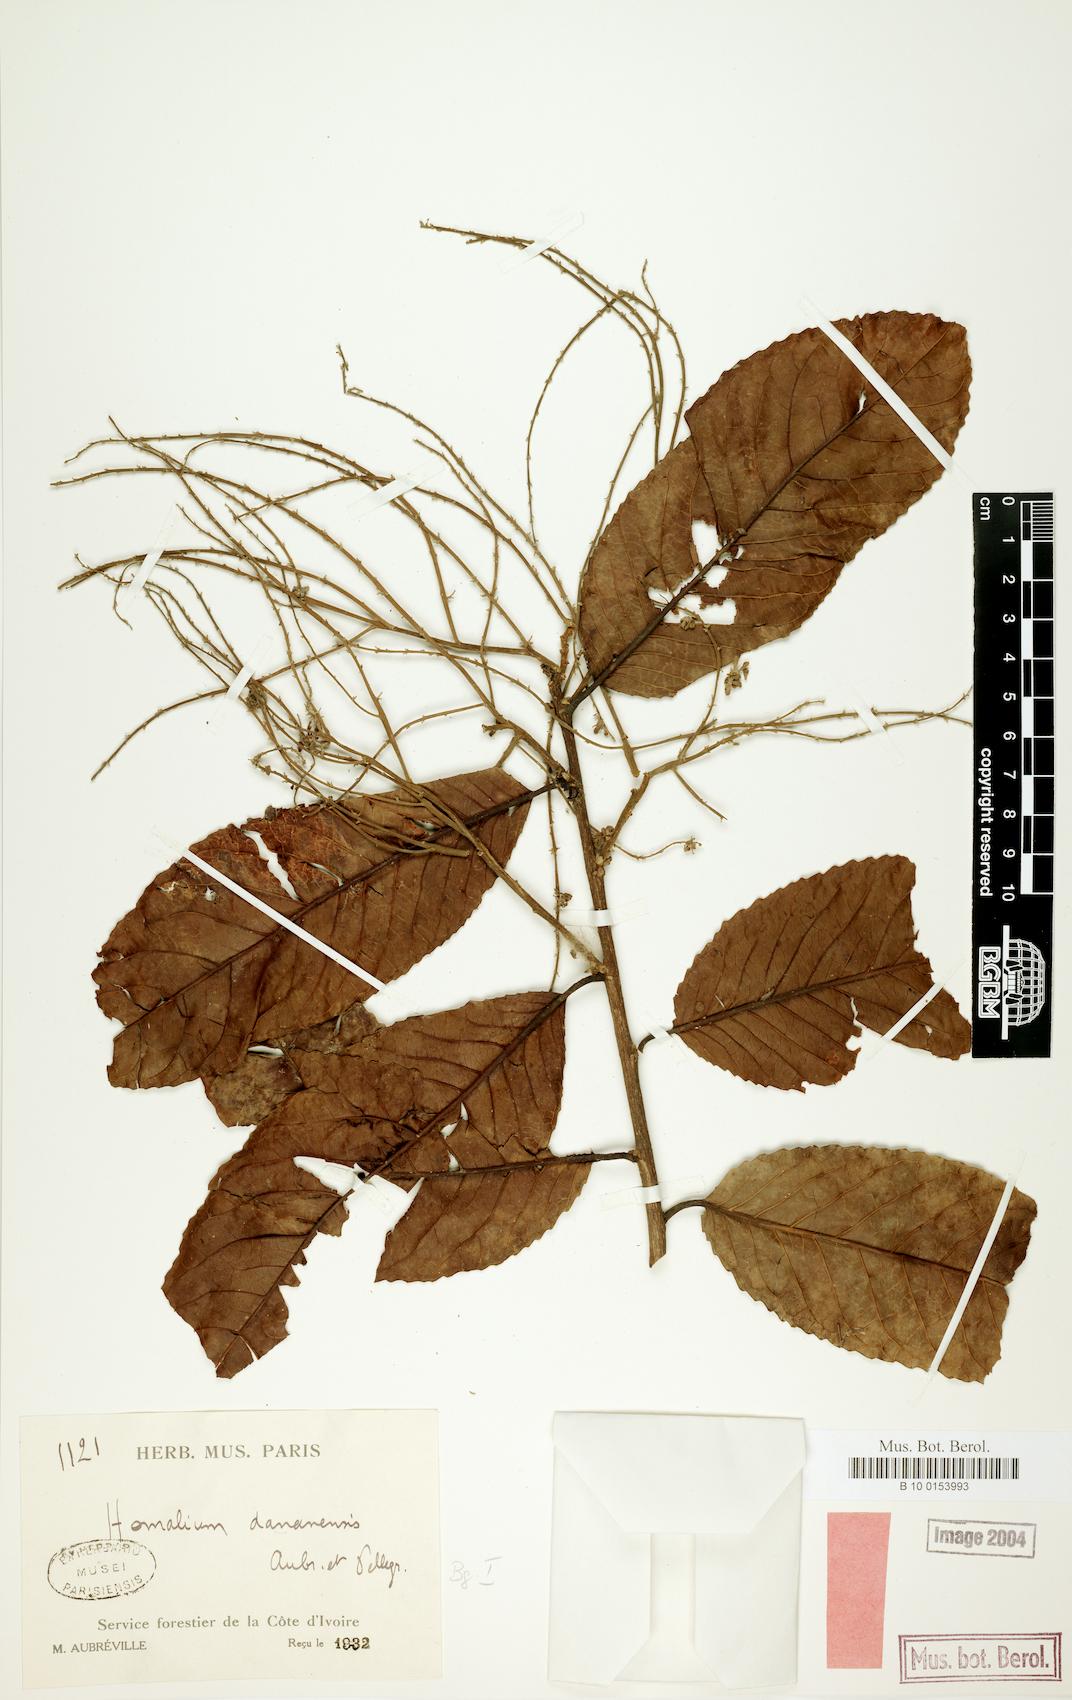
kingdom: Plantae
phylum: Tracheophyta
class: Magnoliopsida
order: Malpighiales
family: Salicaceae
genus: Homalium
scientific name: Homalium stipulaceum
